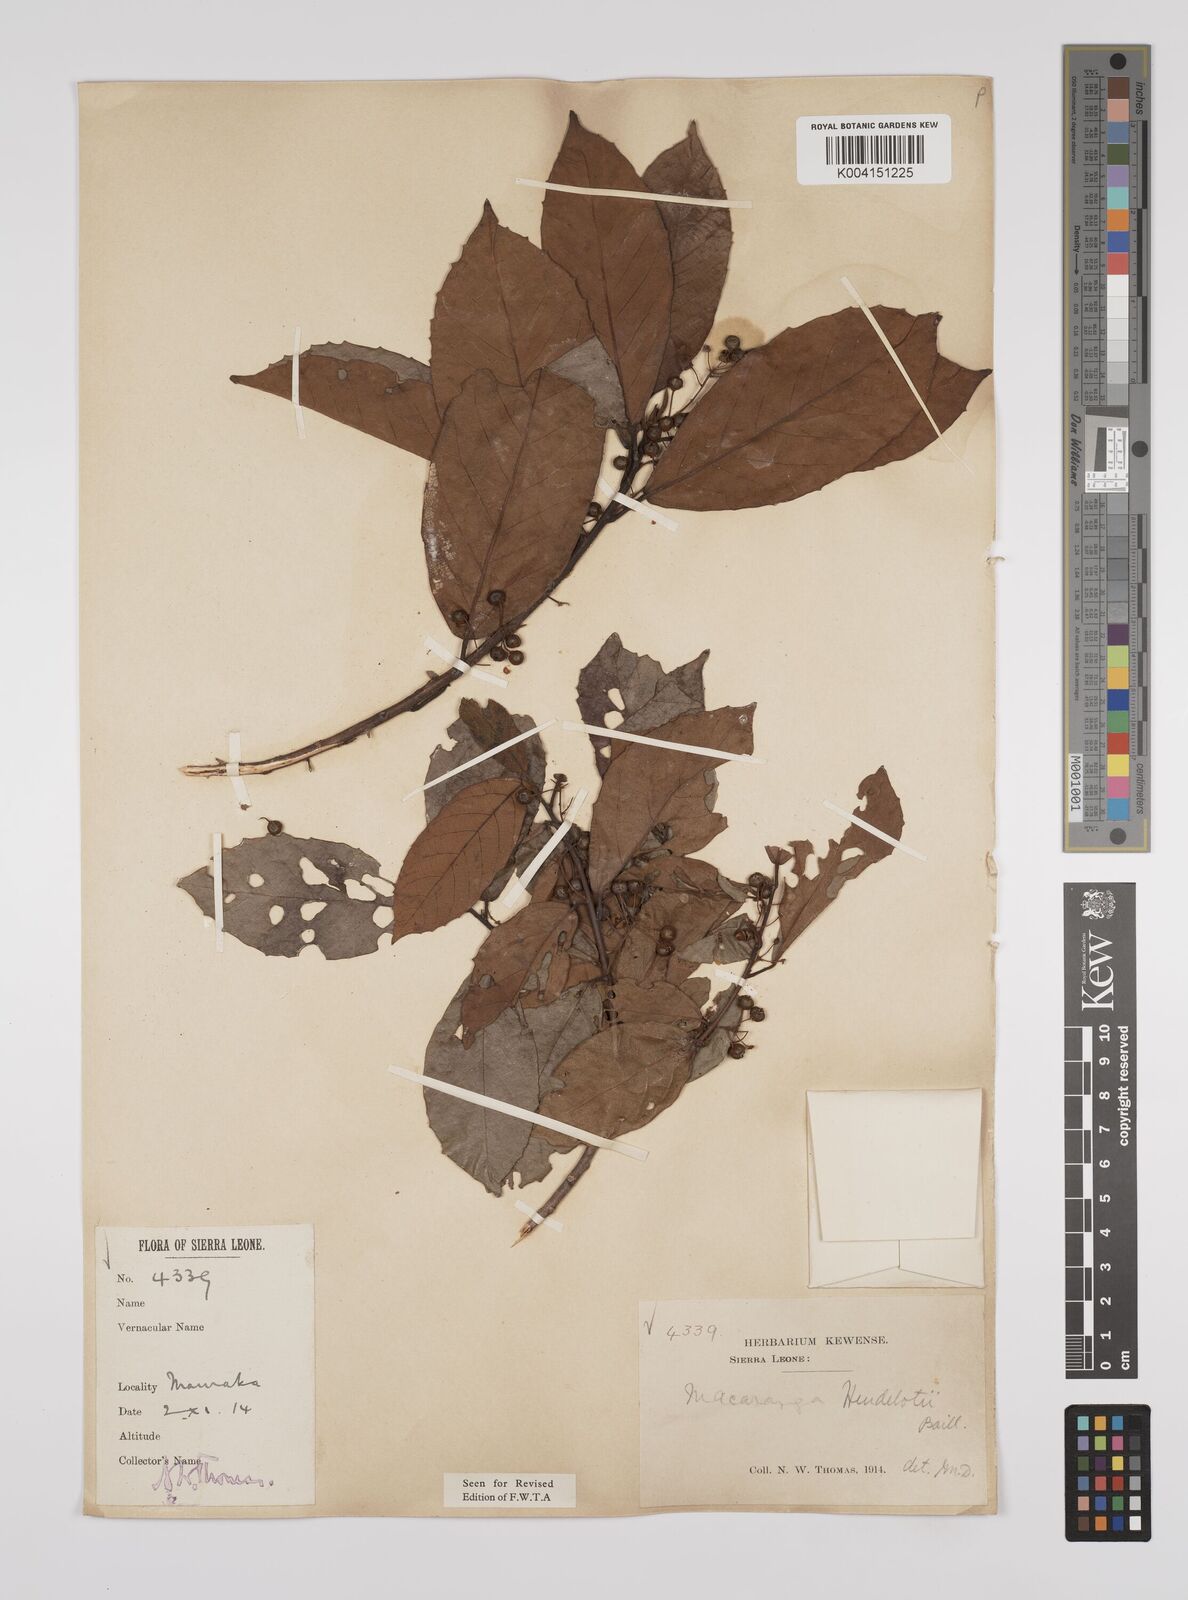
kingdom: Plantae
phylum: Tracheophyta
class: Magnoliopsida
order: Malpighiales
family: Euphorbiaceae
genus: Macaranga
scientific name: Macaranga heudelotii
